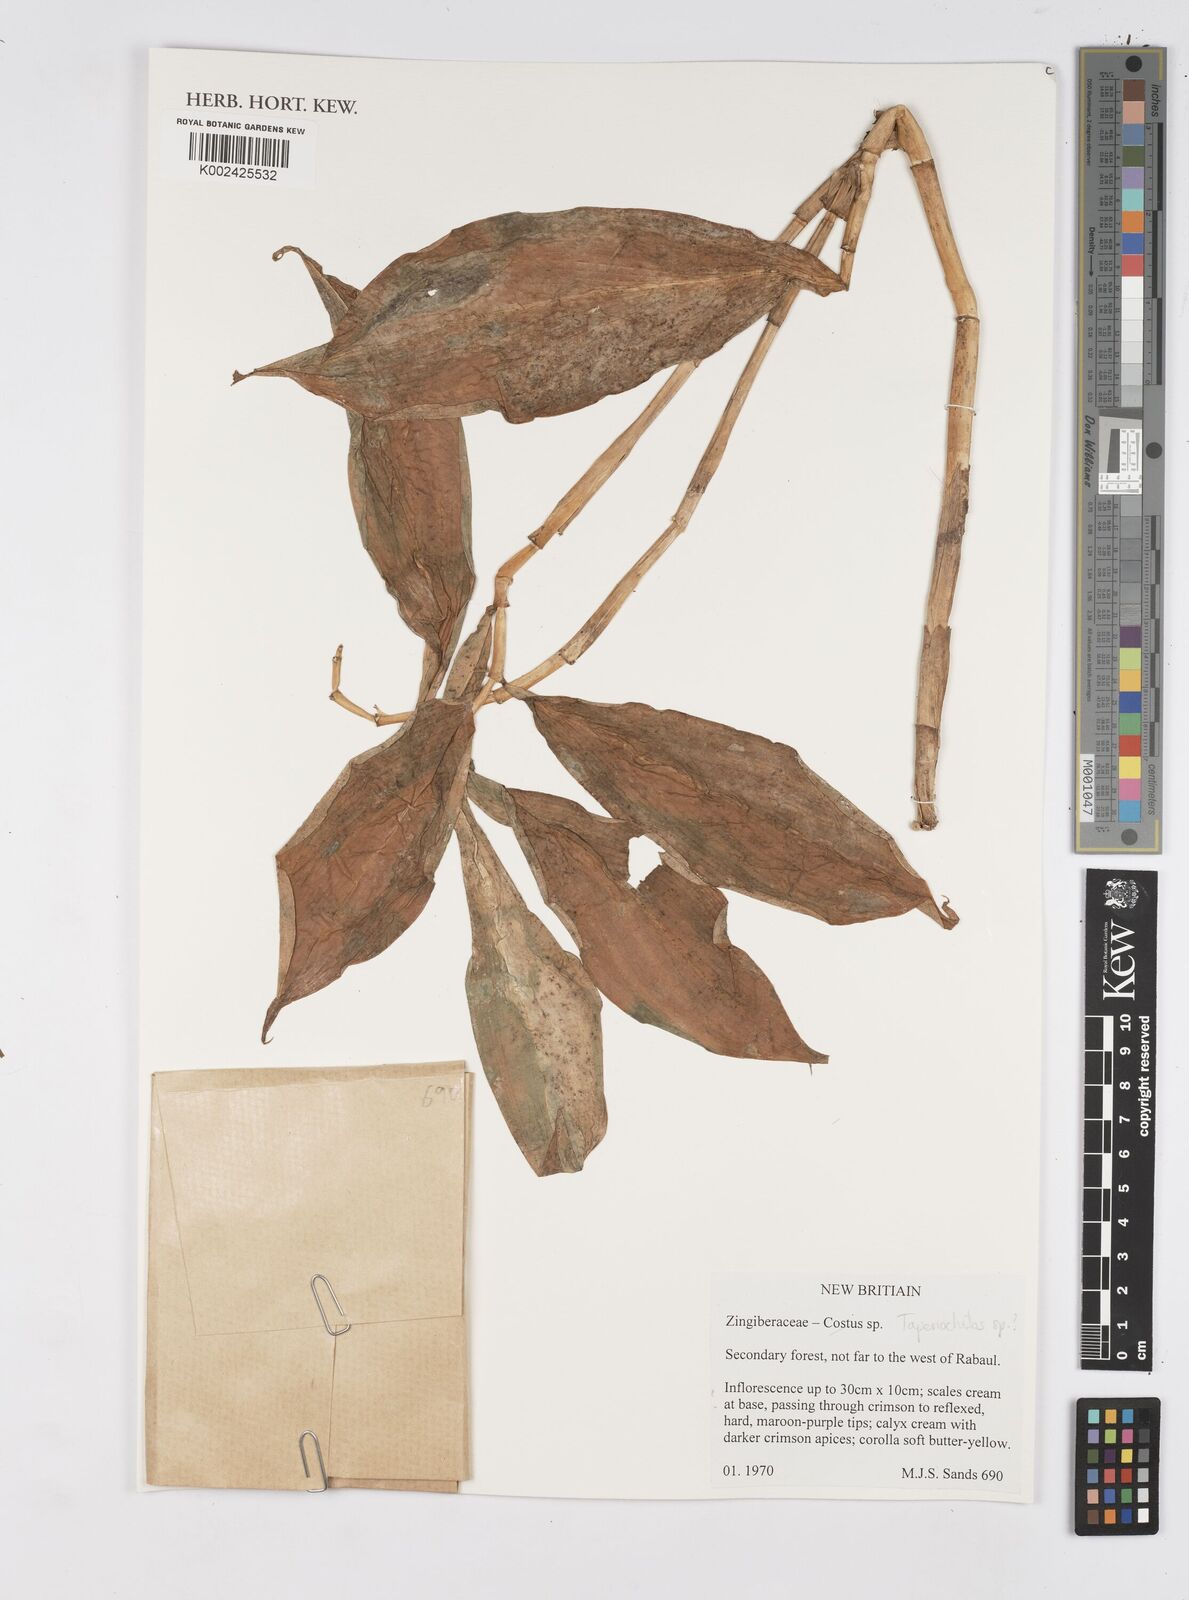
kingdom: Plantae
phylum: Tracheophyta
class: Liliopsida
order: Zingiberales
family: Costaceae
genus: Tapeinochilos
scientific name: Tapeinochilos
